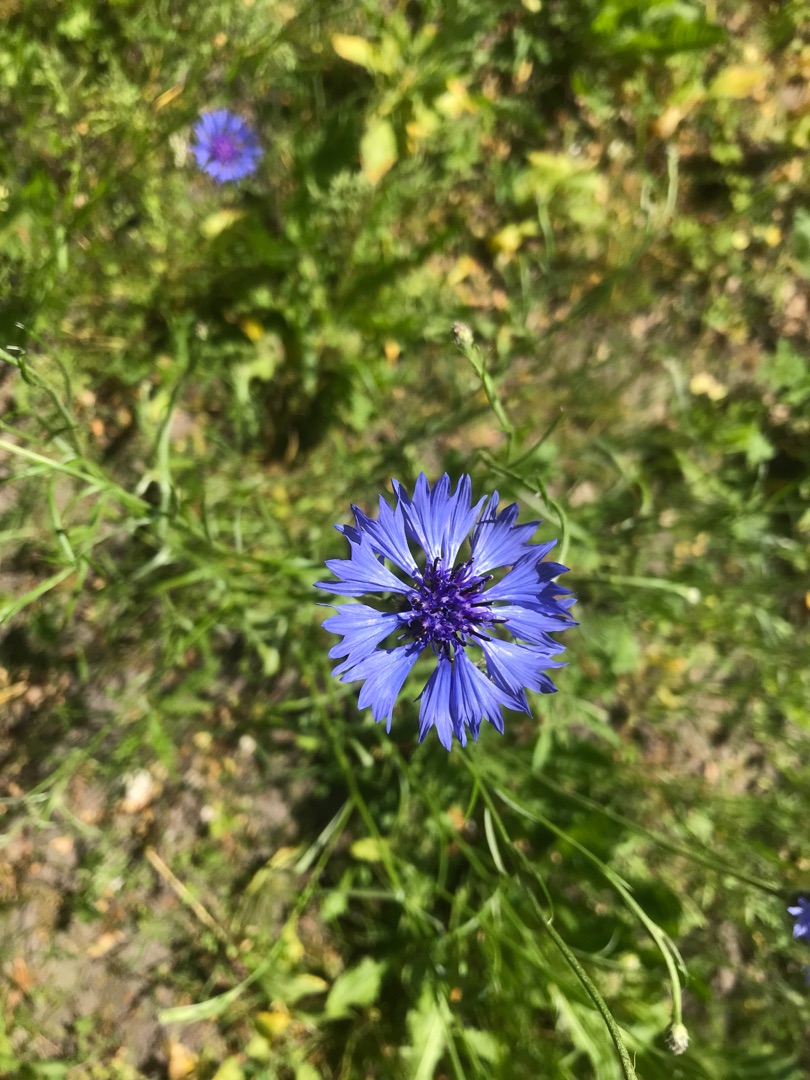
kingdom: Plantae
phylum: Tracheophyta
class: Magnoliopsida
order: Asterales
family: Asteraceae
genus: Centaurea
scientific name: Centaurea cyanus
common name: Kornblomst
